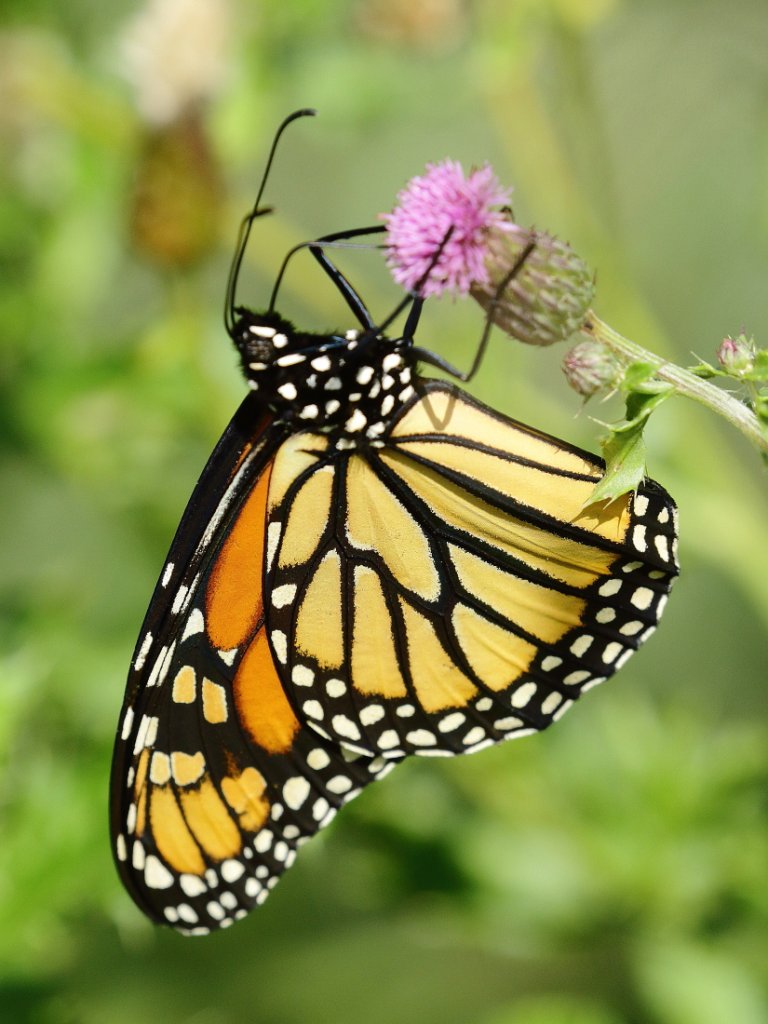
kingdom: Animalia
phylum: Arthropoda
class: Insecta
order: Lepidoptera
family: Nymphalidae
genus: Danaus
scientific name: Danaus plexippus
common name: Monarch
